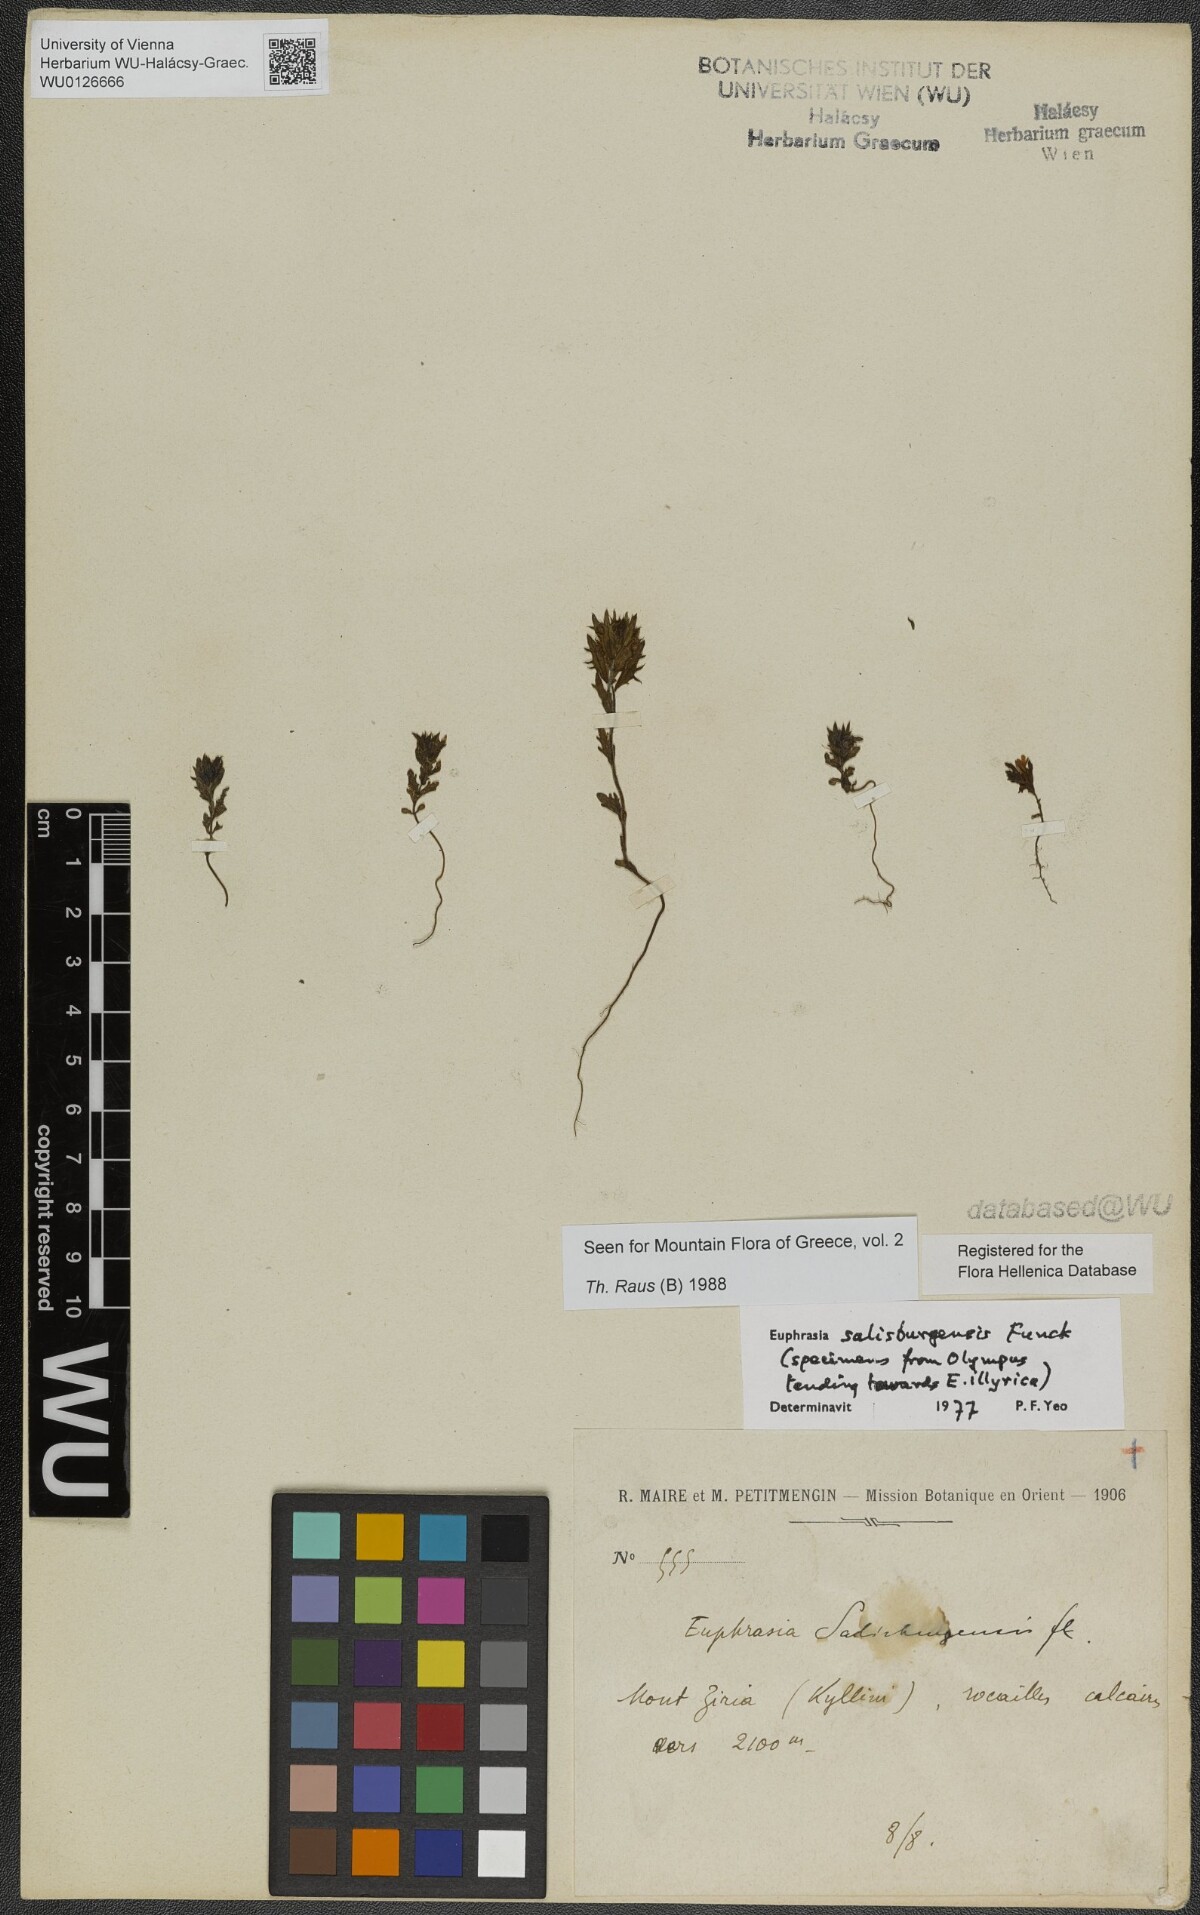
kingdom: Plantae
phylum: Tracheophyta
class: Magnoliopsida
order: Lamiales
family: Orobanchaceae
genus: Euphrasia
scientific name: Euphrasia salisburgensis
